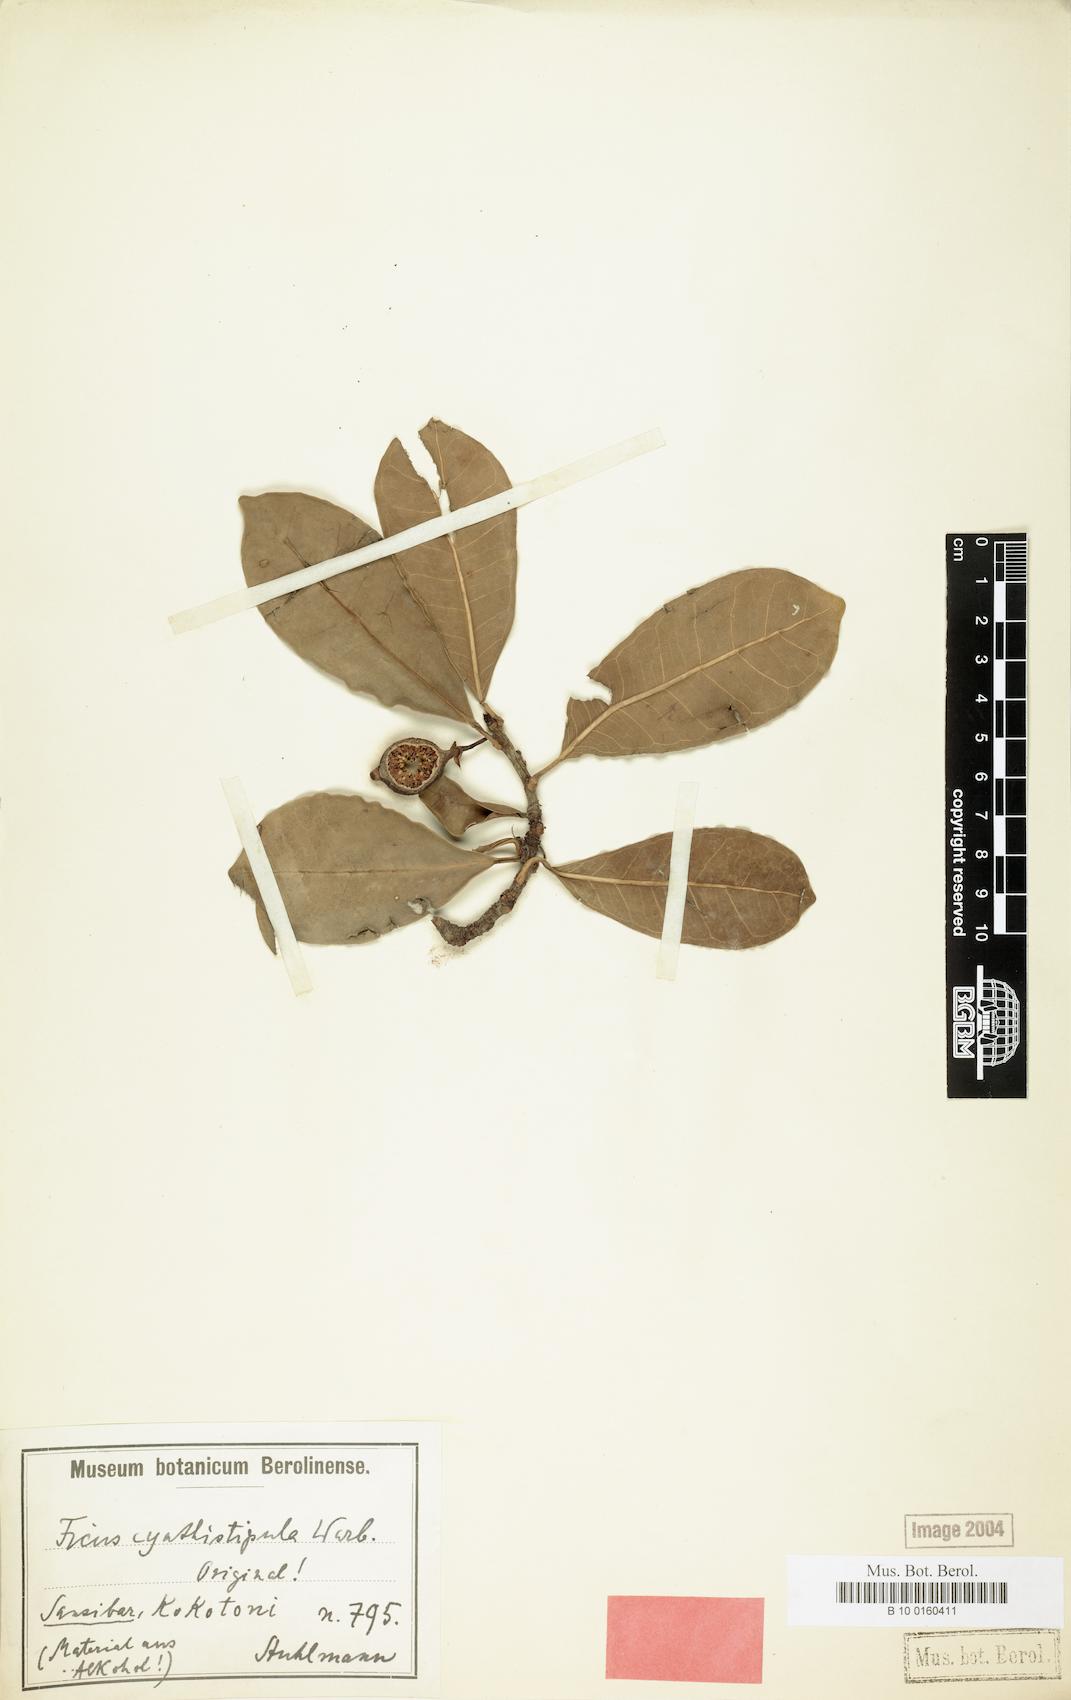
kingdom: Plantae
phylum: Tracheophyta
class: Magnoliopsida
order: Rosales
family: Moraceae
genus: Ficus
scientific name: Ficus cyathistipula
